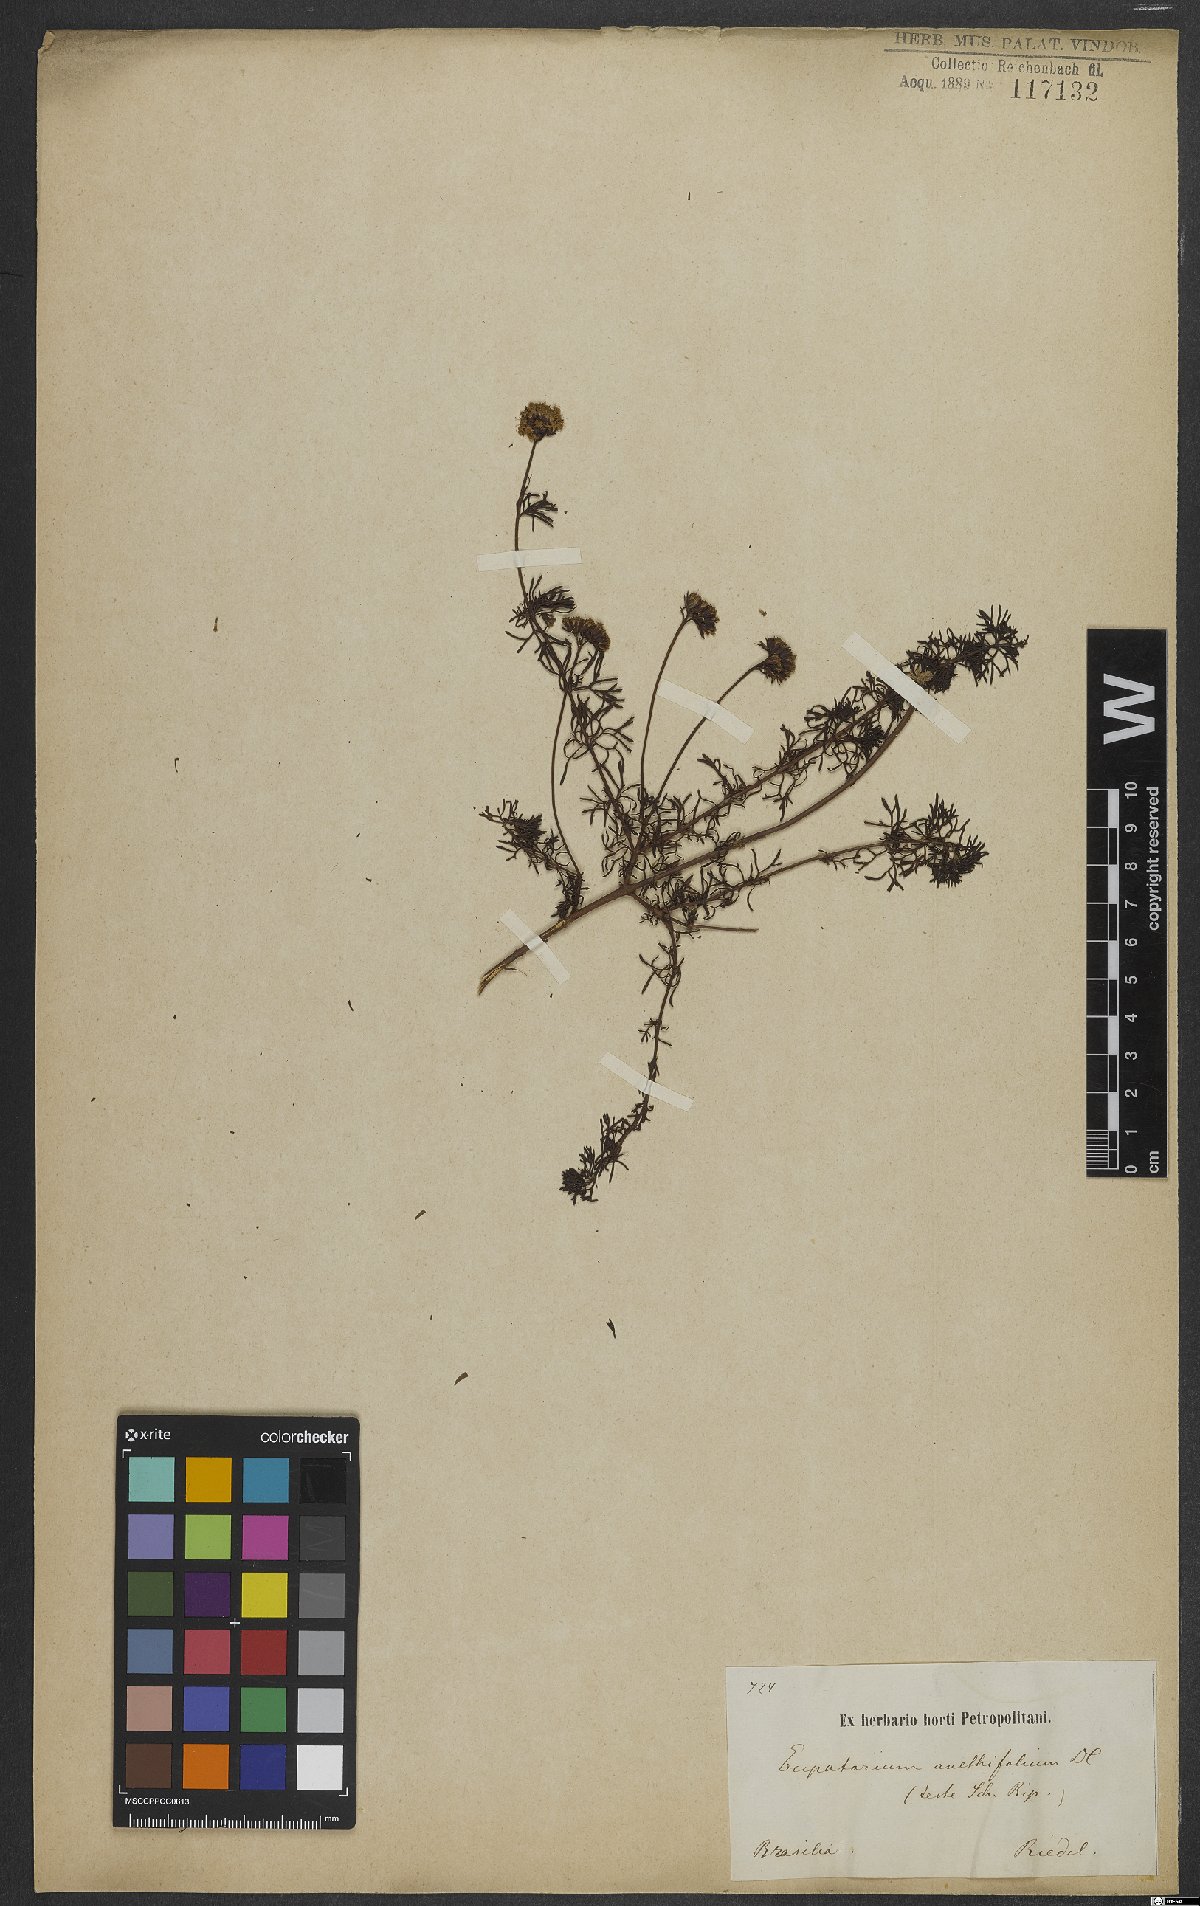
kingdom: Plantae
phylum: Tracheophyta
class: Magnoliopsida
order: Asterales
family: Asteraceae
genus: Mikania
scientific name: Mikania anethifolia
